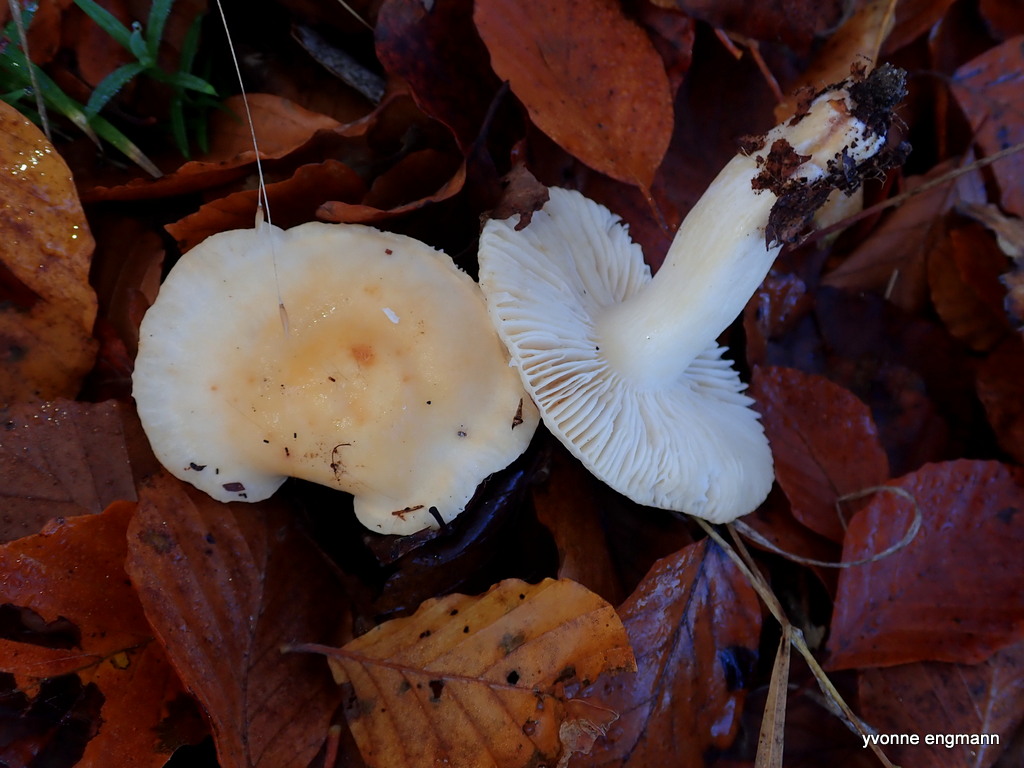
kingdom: Fungi
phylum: Basidiomycota
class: Agaricomycetes
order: Russulales
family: Russulaceae
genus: Russula
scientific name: Russula ochroleuca
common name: okkergul skørhat
